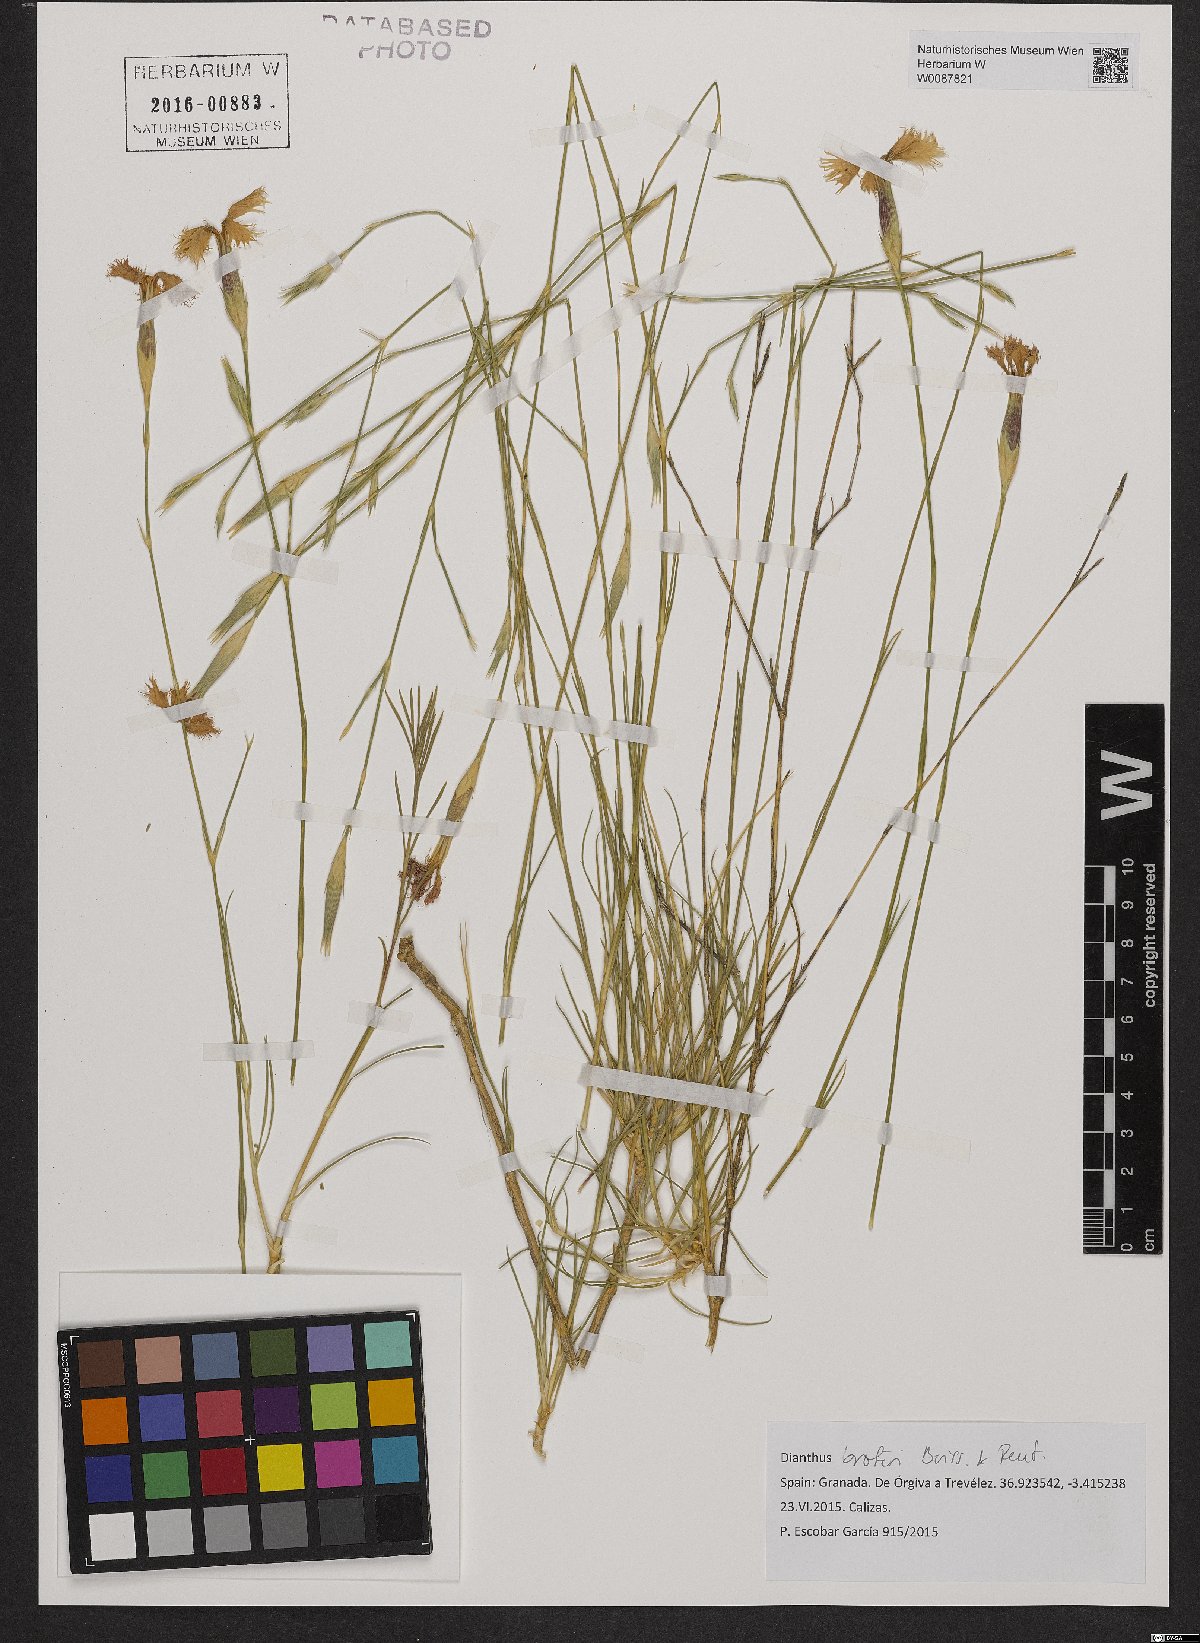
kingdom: Plantae
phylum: Tracheophyta
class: Magnoliopsida
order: Caryophyllales
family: Caryophyllaceae
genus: Dianthus
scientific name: Dianthus broteri
